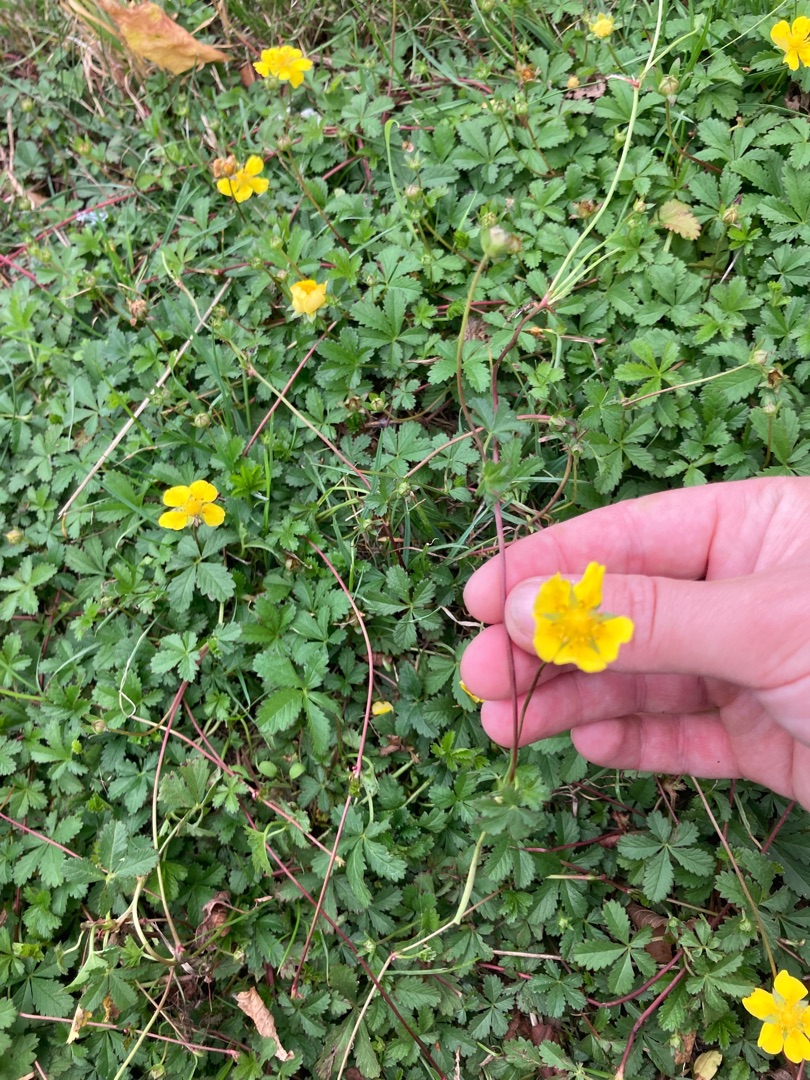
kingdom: Plantae
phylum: Tracheophyta
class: Magnoliopsida
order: Rosales
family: Rosaceae
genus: Potentilla
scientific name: Potentilla reptans
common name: Krybende potentil
